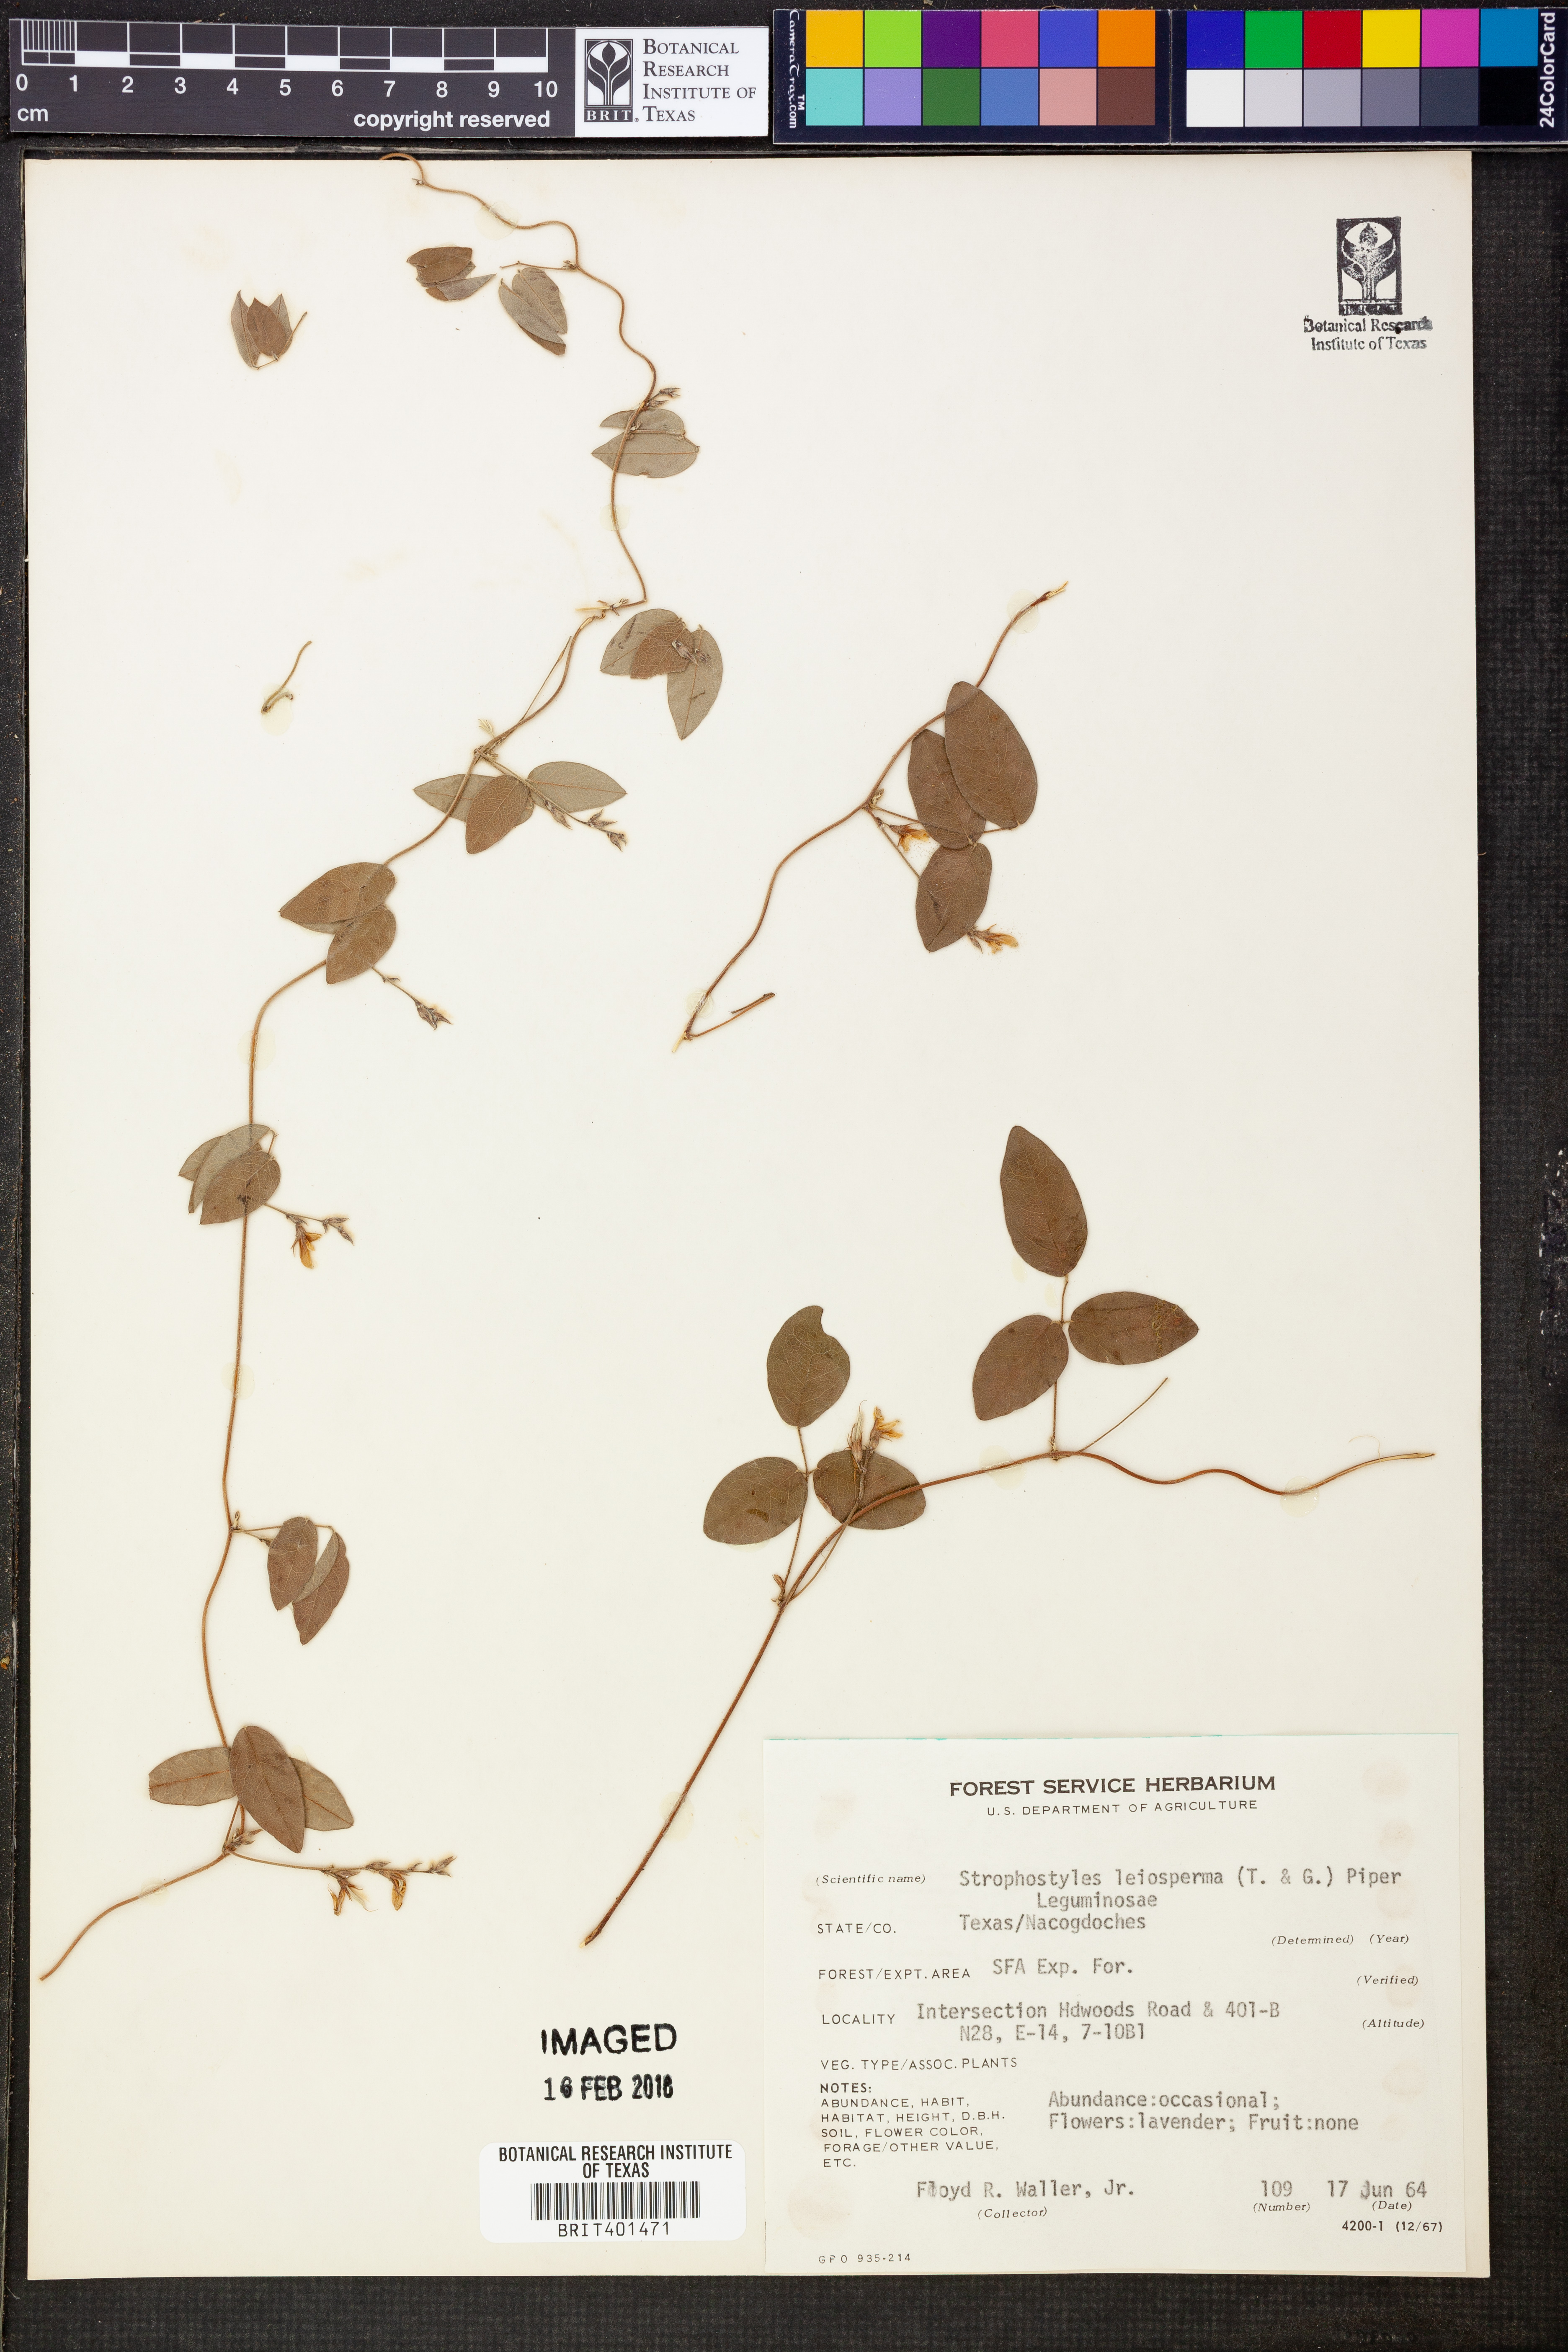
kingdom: Plantae
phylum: Tracheophyta
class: Magnoliopsida
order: Fabales
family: Fabaceae
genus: Strophostyles
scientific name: Strophostyles leiosperma
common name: Smooth-seed wild bean
